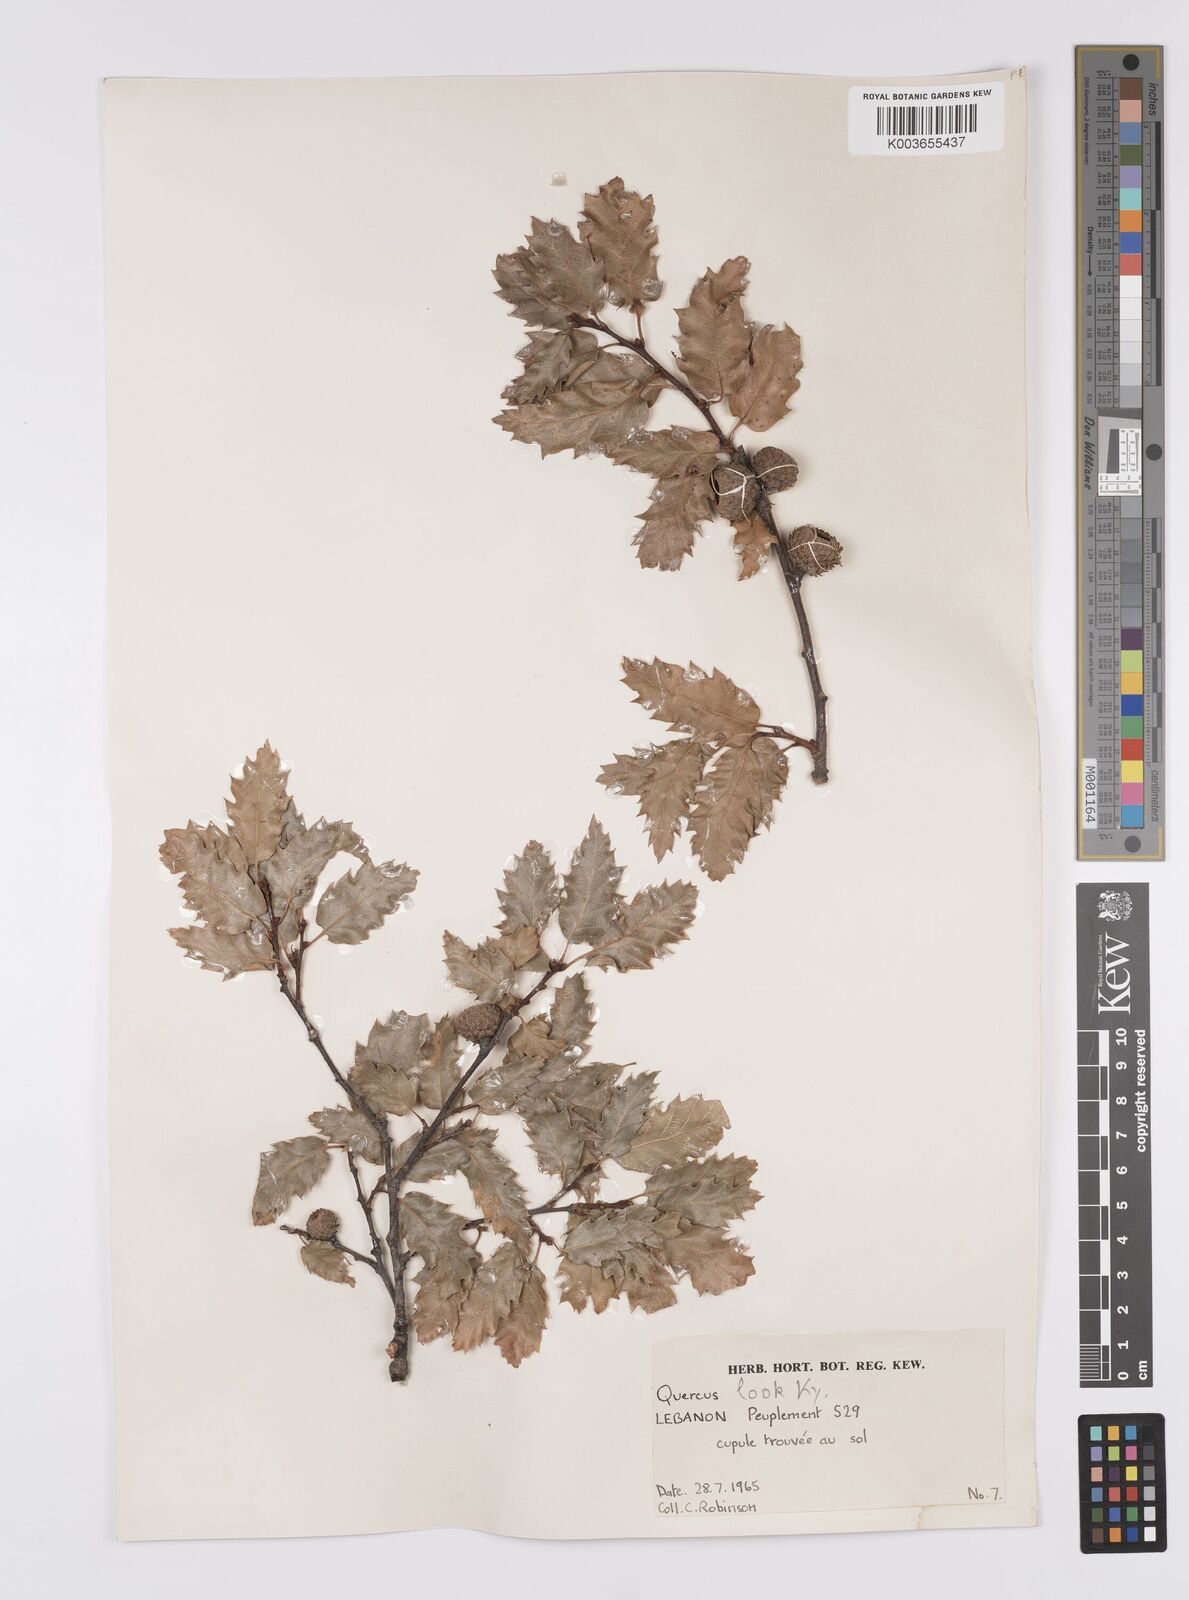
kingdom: Plantae
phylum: Tracheophyta
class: Magnoliopsida
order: Fagales
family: Fagaceae
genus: Quercus
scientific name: Quercus look
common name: Look oak
